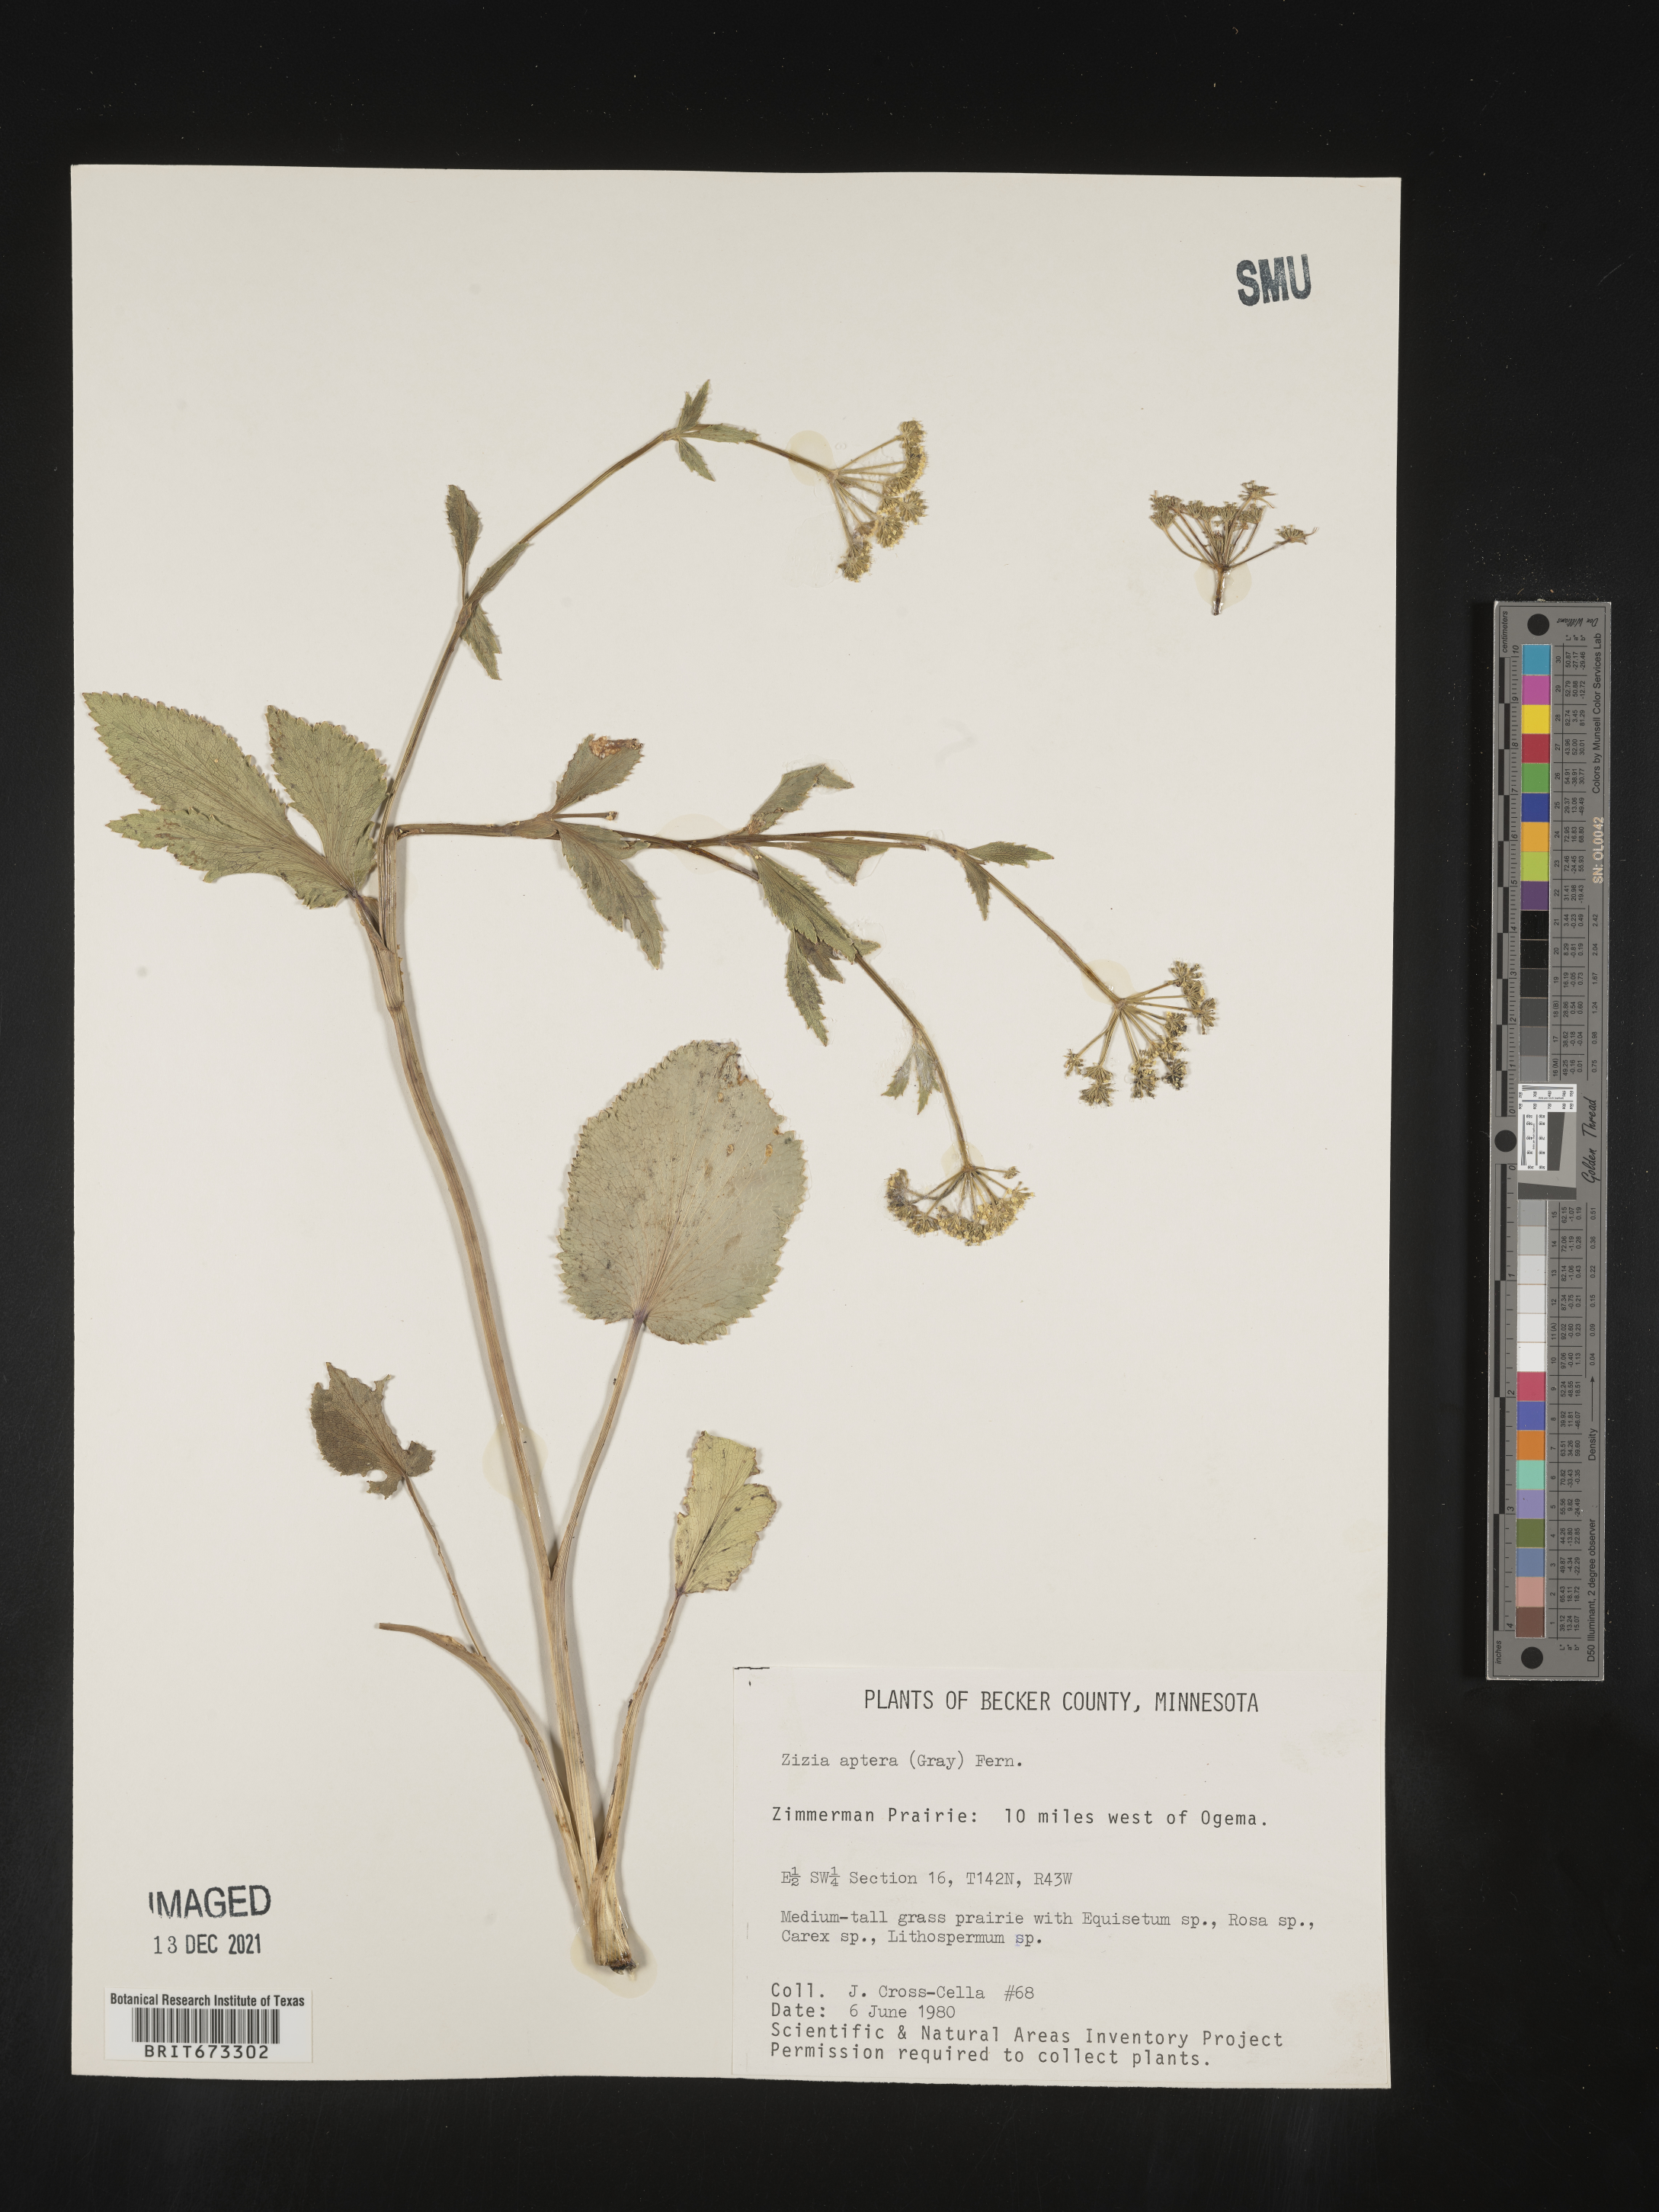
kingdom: Plantae
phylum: Tracheophyta
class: Magnoliopsida
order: Apiales
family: Apiaceae
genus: Zizia
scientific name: Zizia aptera
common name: Heart-leaved alexanders
